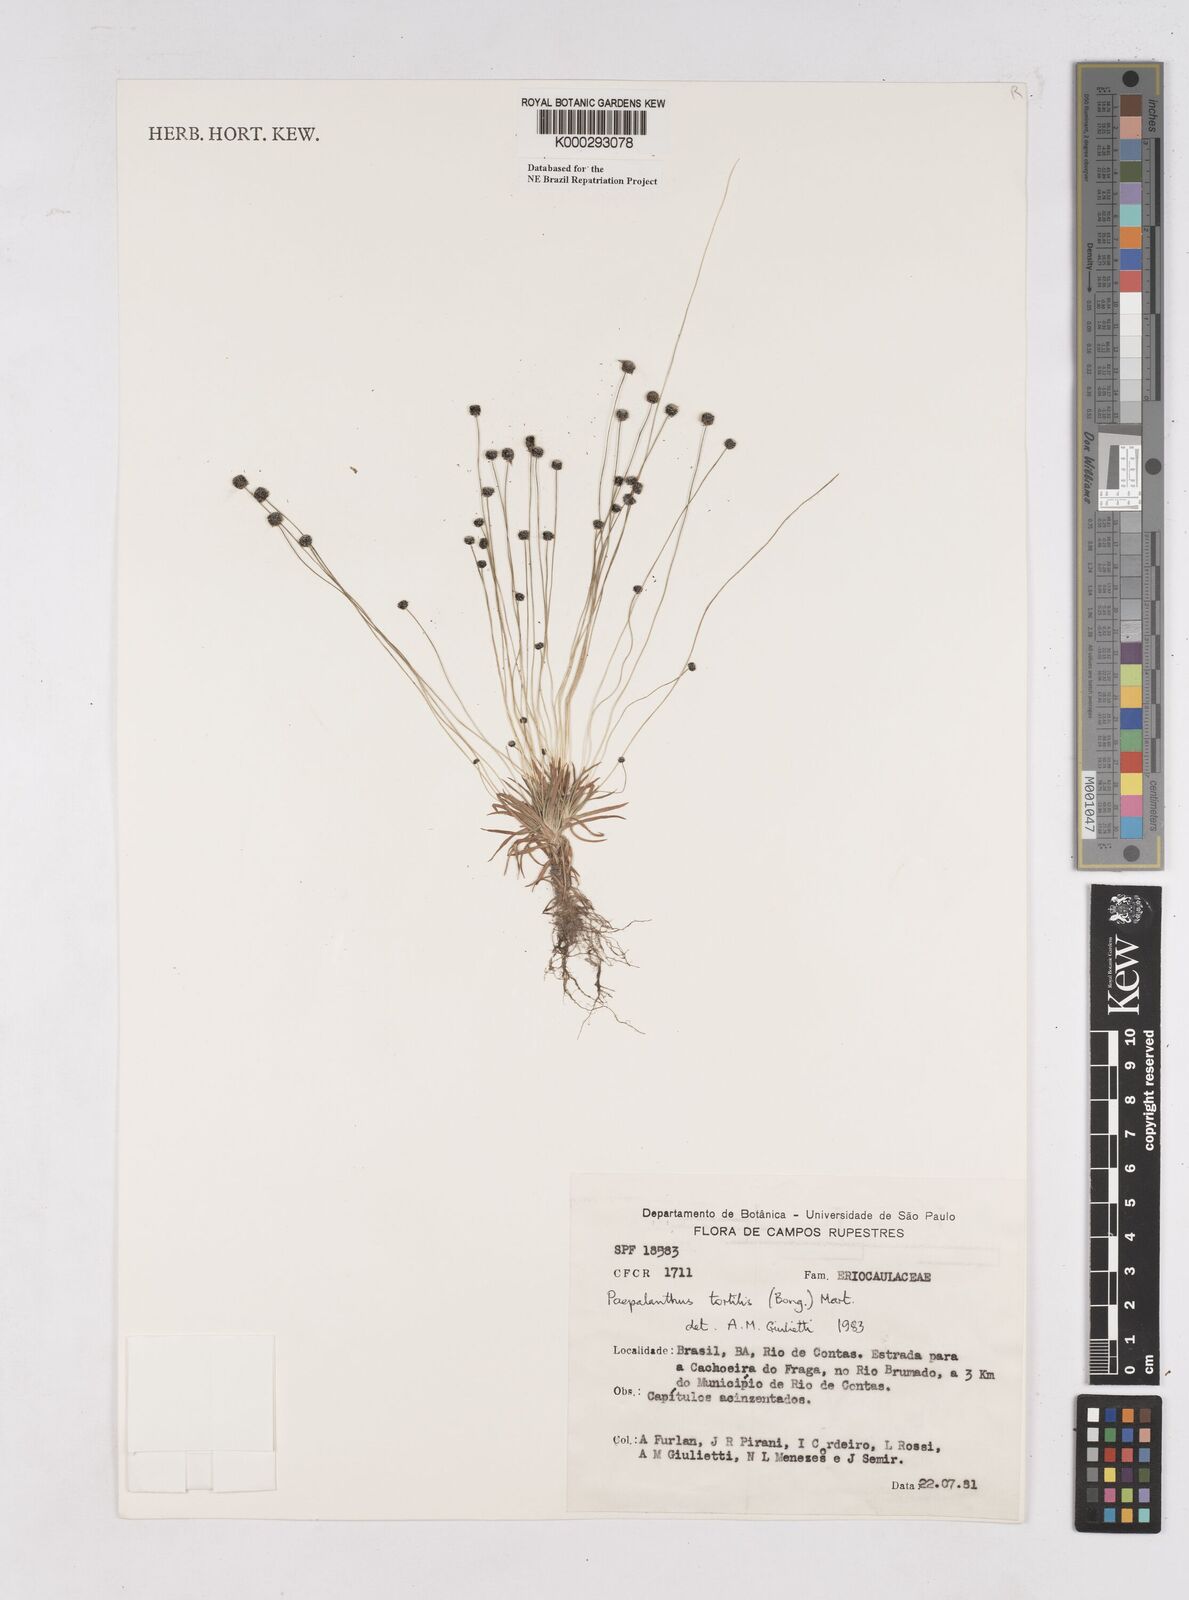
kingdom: Plantae
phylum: Tracheophyta
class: Liliopsida
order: Poales
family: Eriocaulaceae
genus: Paepalanthus
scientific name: Paepalanthus
